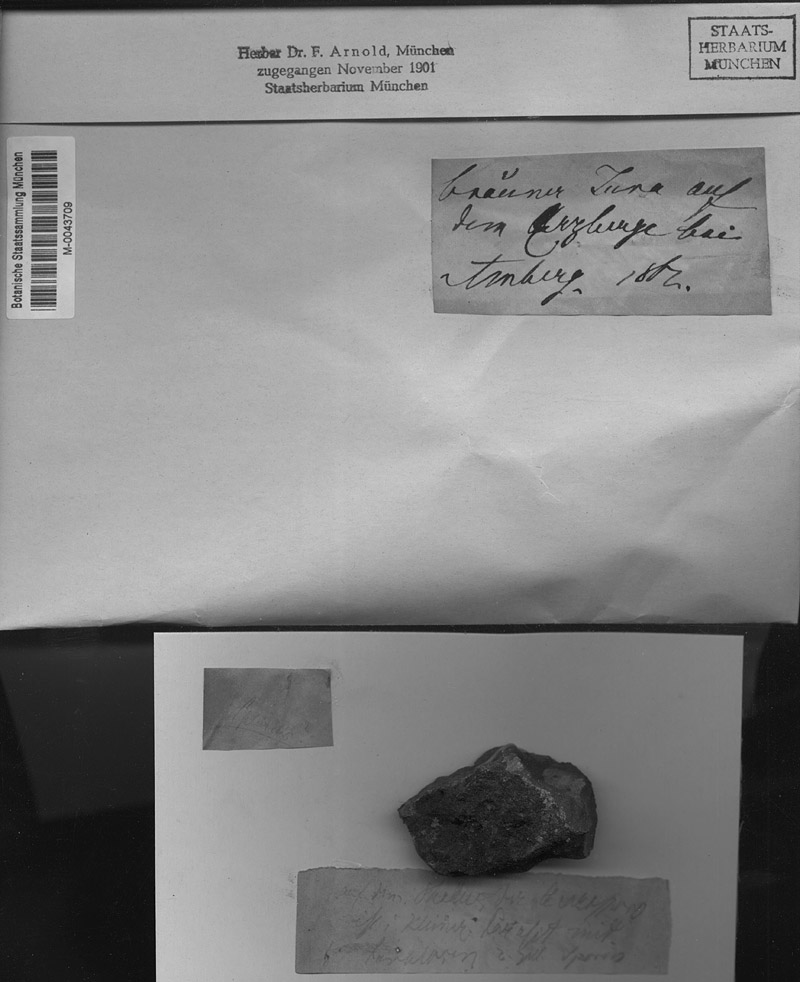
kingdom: Fungi
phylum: Ascomycota
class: Dothideomycetes
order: Mycosphaerellales
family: Mycosphaerellaceae
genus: Stigmidium
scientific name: Stigmidium fuscatae
